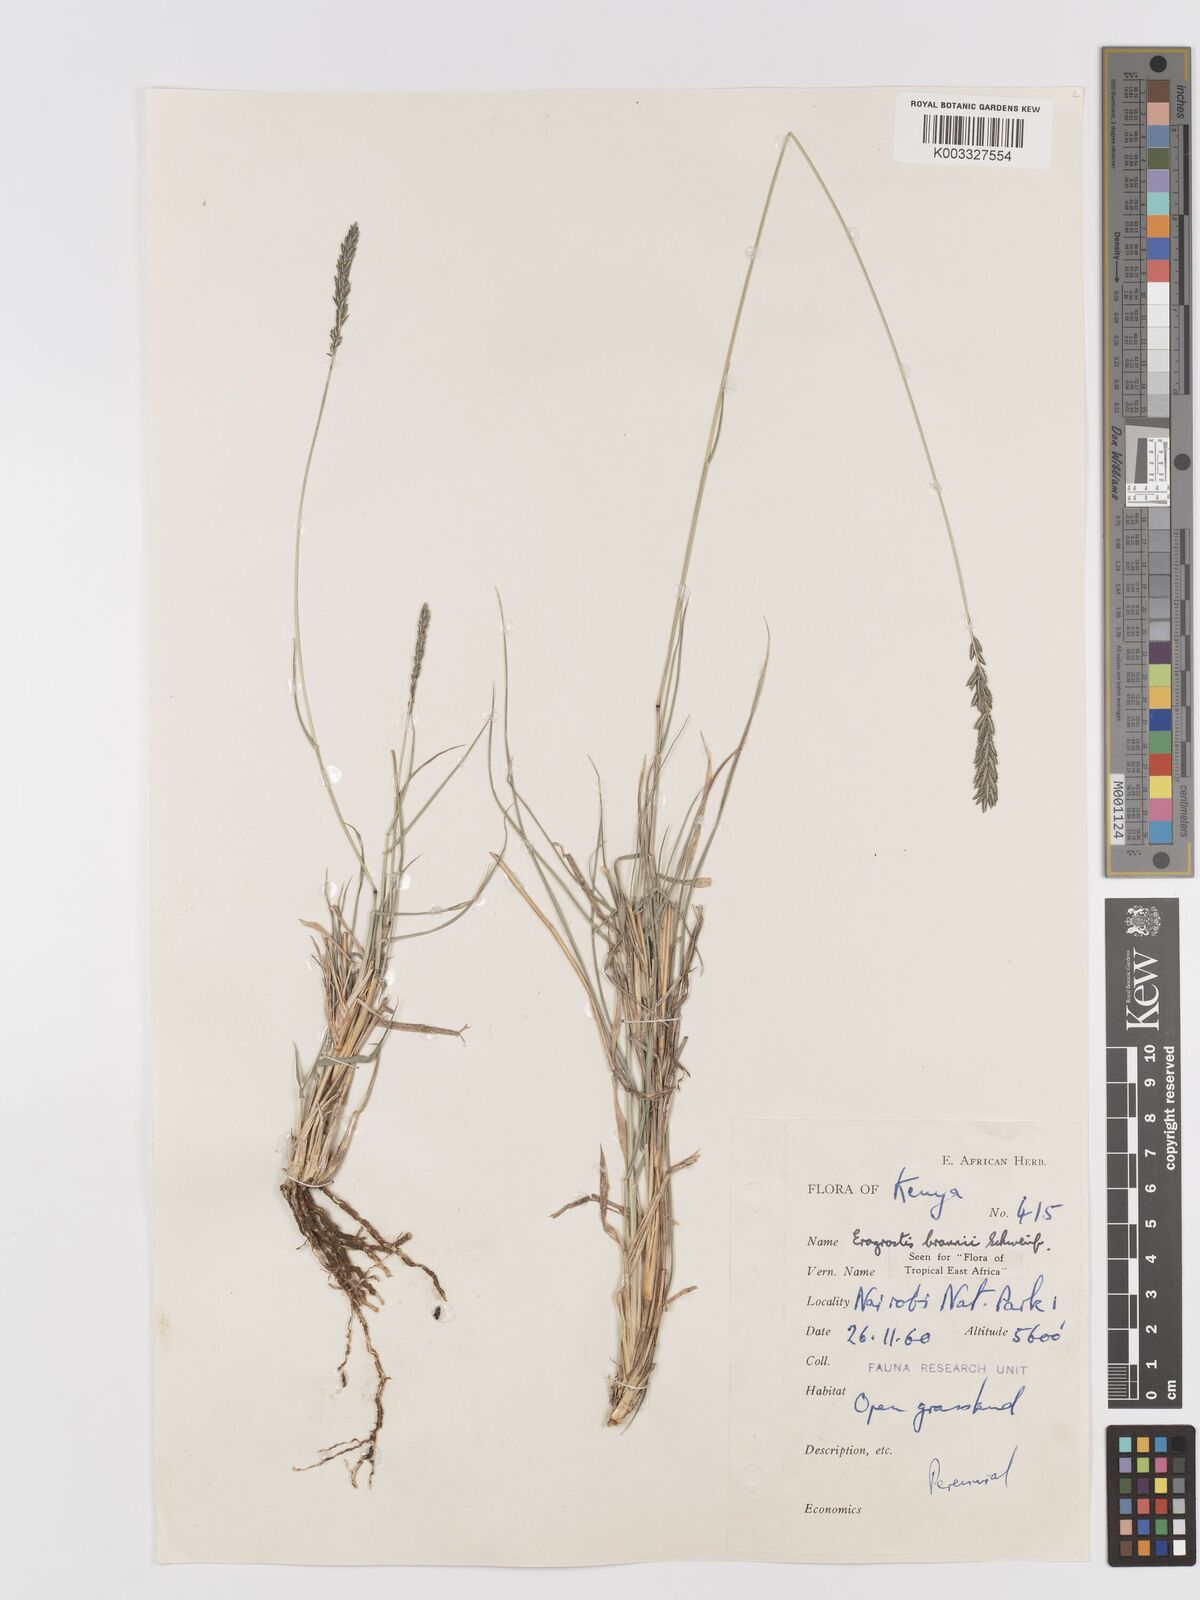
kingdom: Plantae
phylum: Tracheophyta
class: Liliopsida
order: Poales
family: Poaceae
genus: Eragrostis
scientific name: Eragrostis braunii
